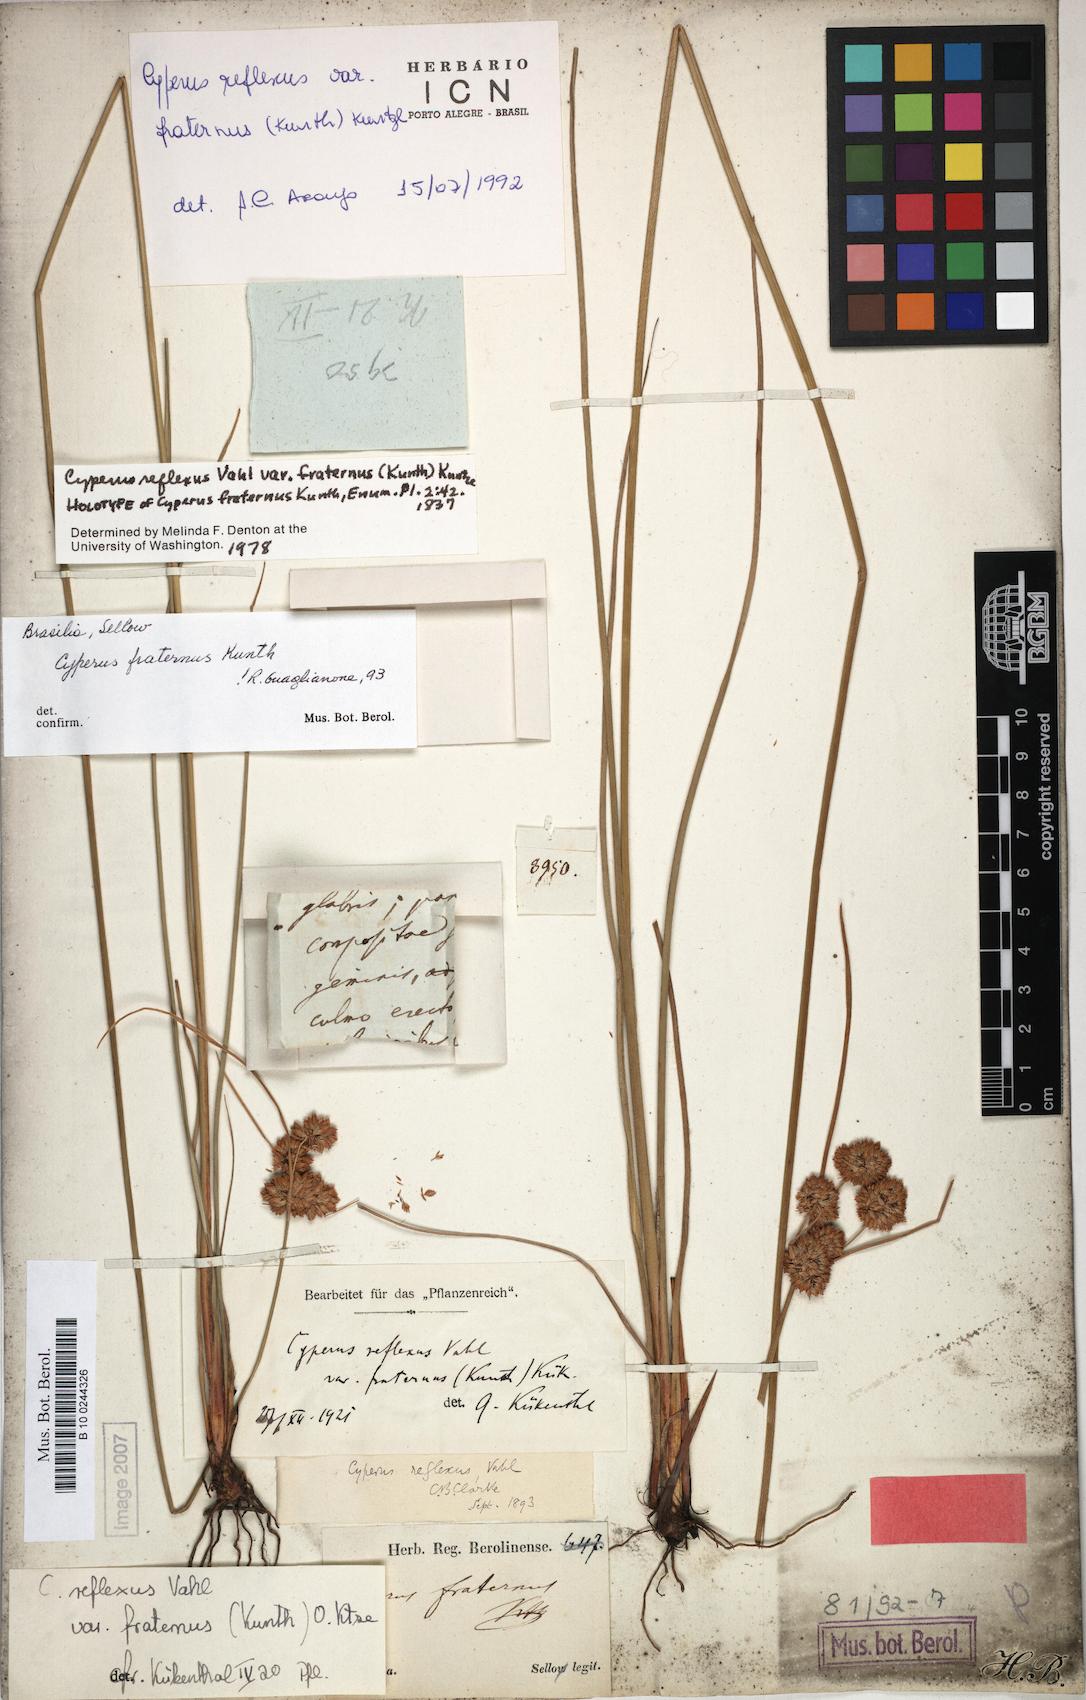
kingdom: Plantae
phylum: Tracheophyta
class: Liliopsida
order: Poales
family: Cyperaceae
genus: Cyperus
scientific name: Cyperus reflexus
